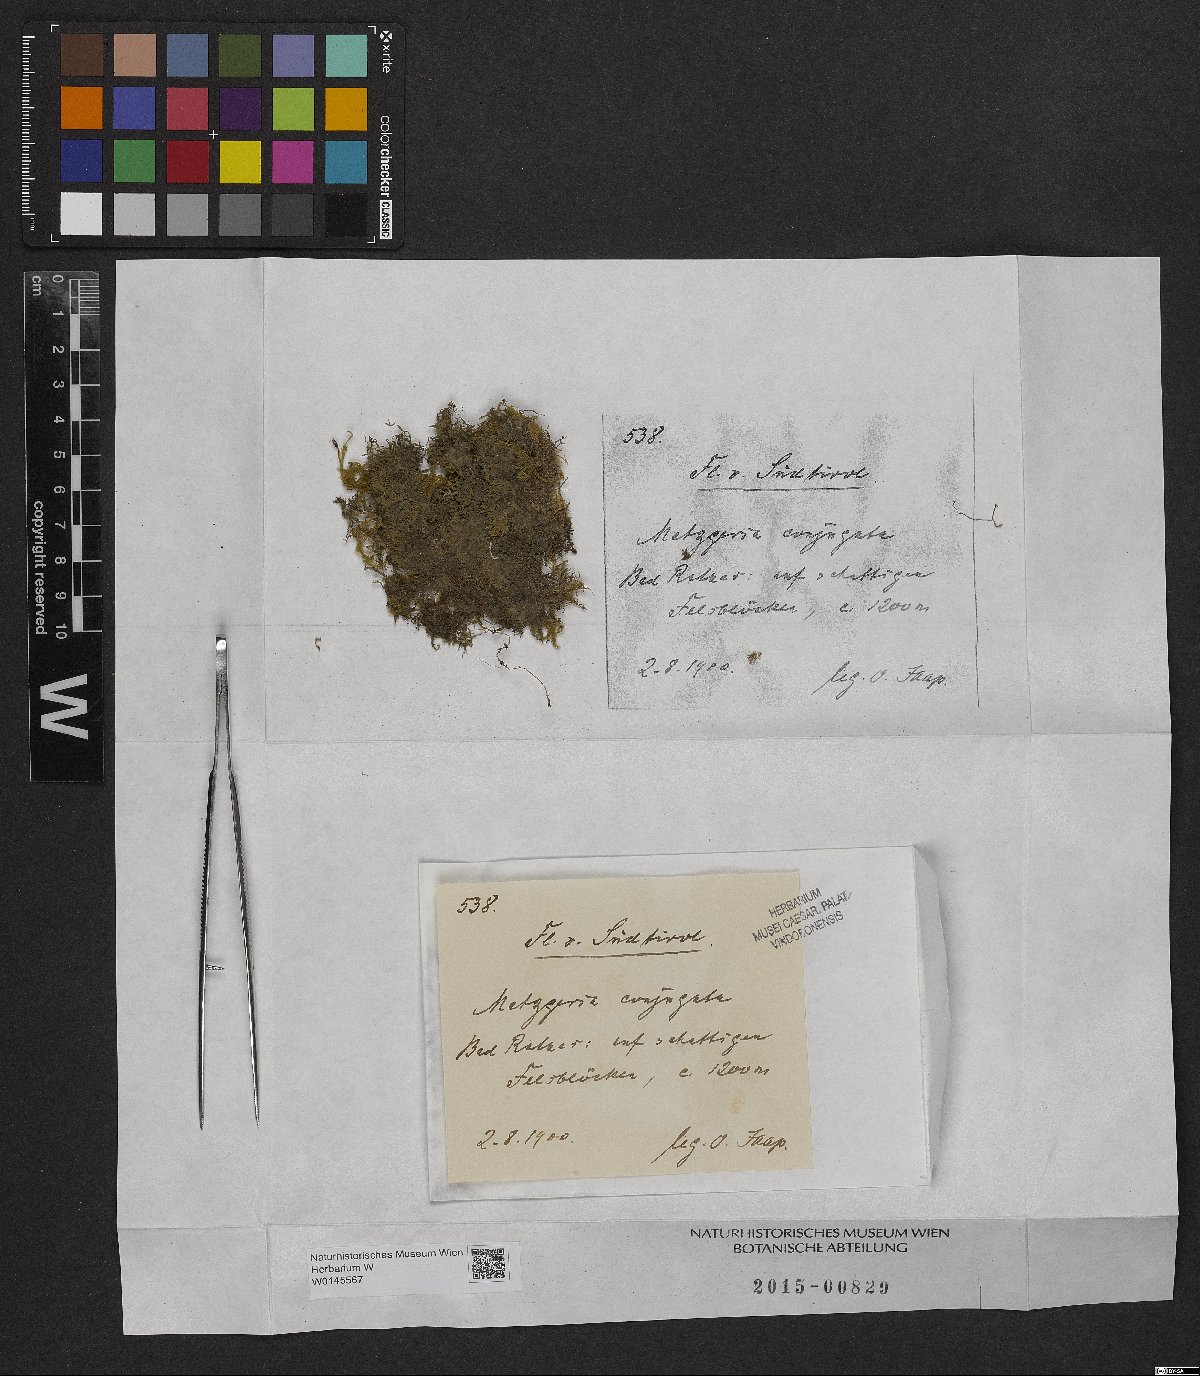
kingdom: Plantae
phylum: Marchantiophyta
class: Jungermanniopsida
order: Metzgeriales
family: Metzgeriaceae
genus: Metzgeria
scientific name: Metzgeria conjugata
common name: Rock veilwort
